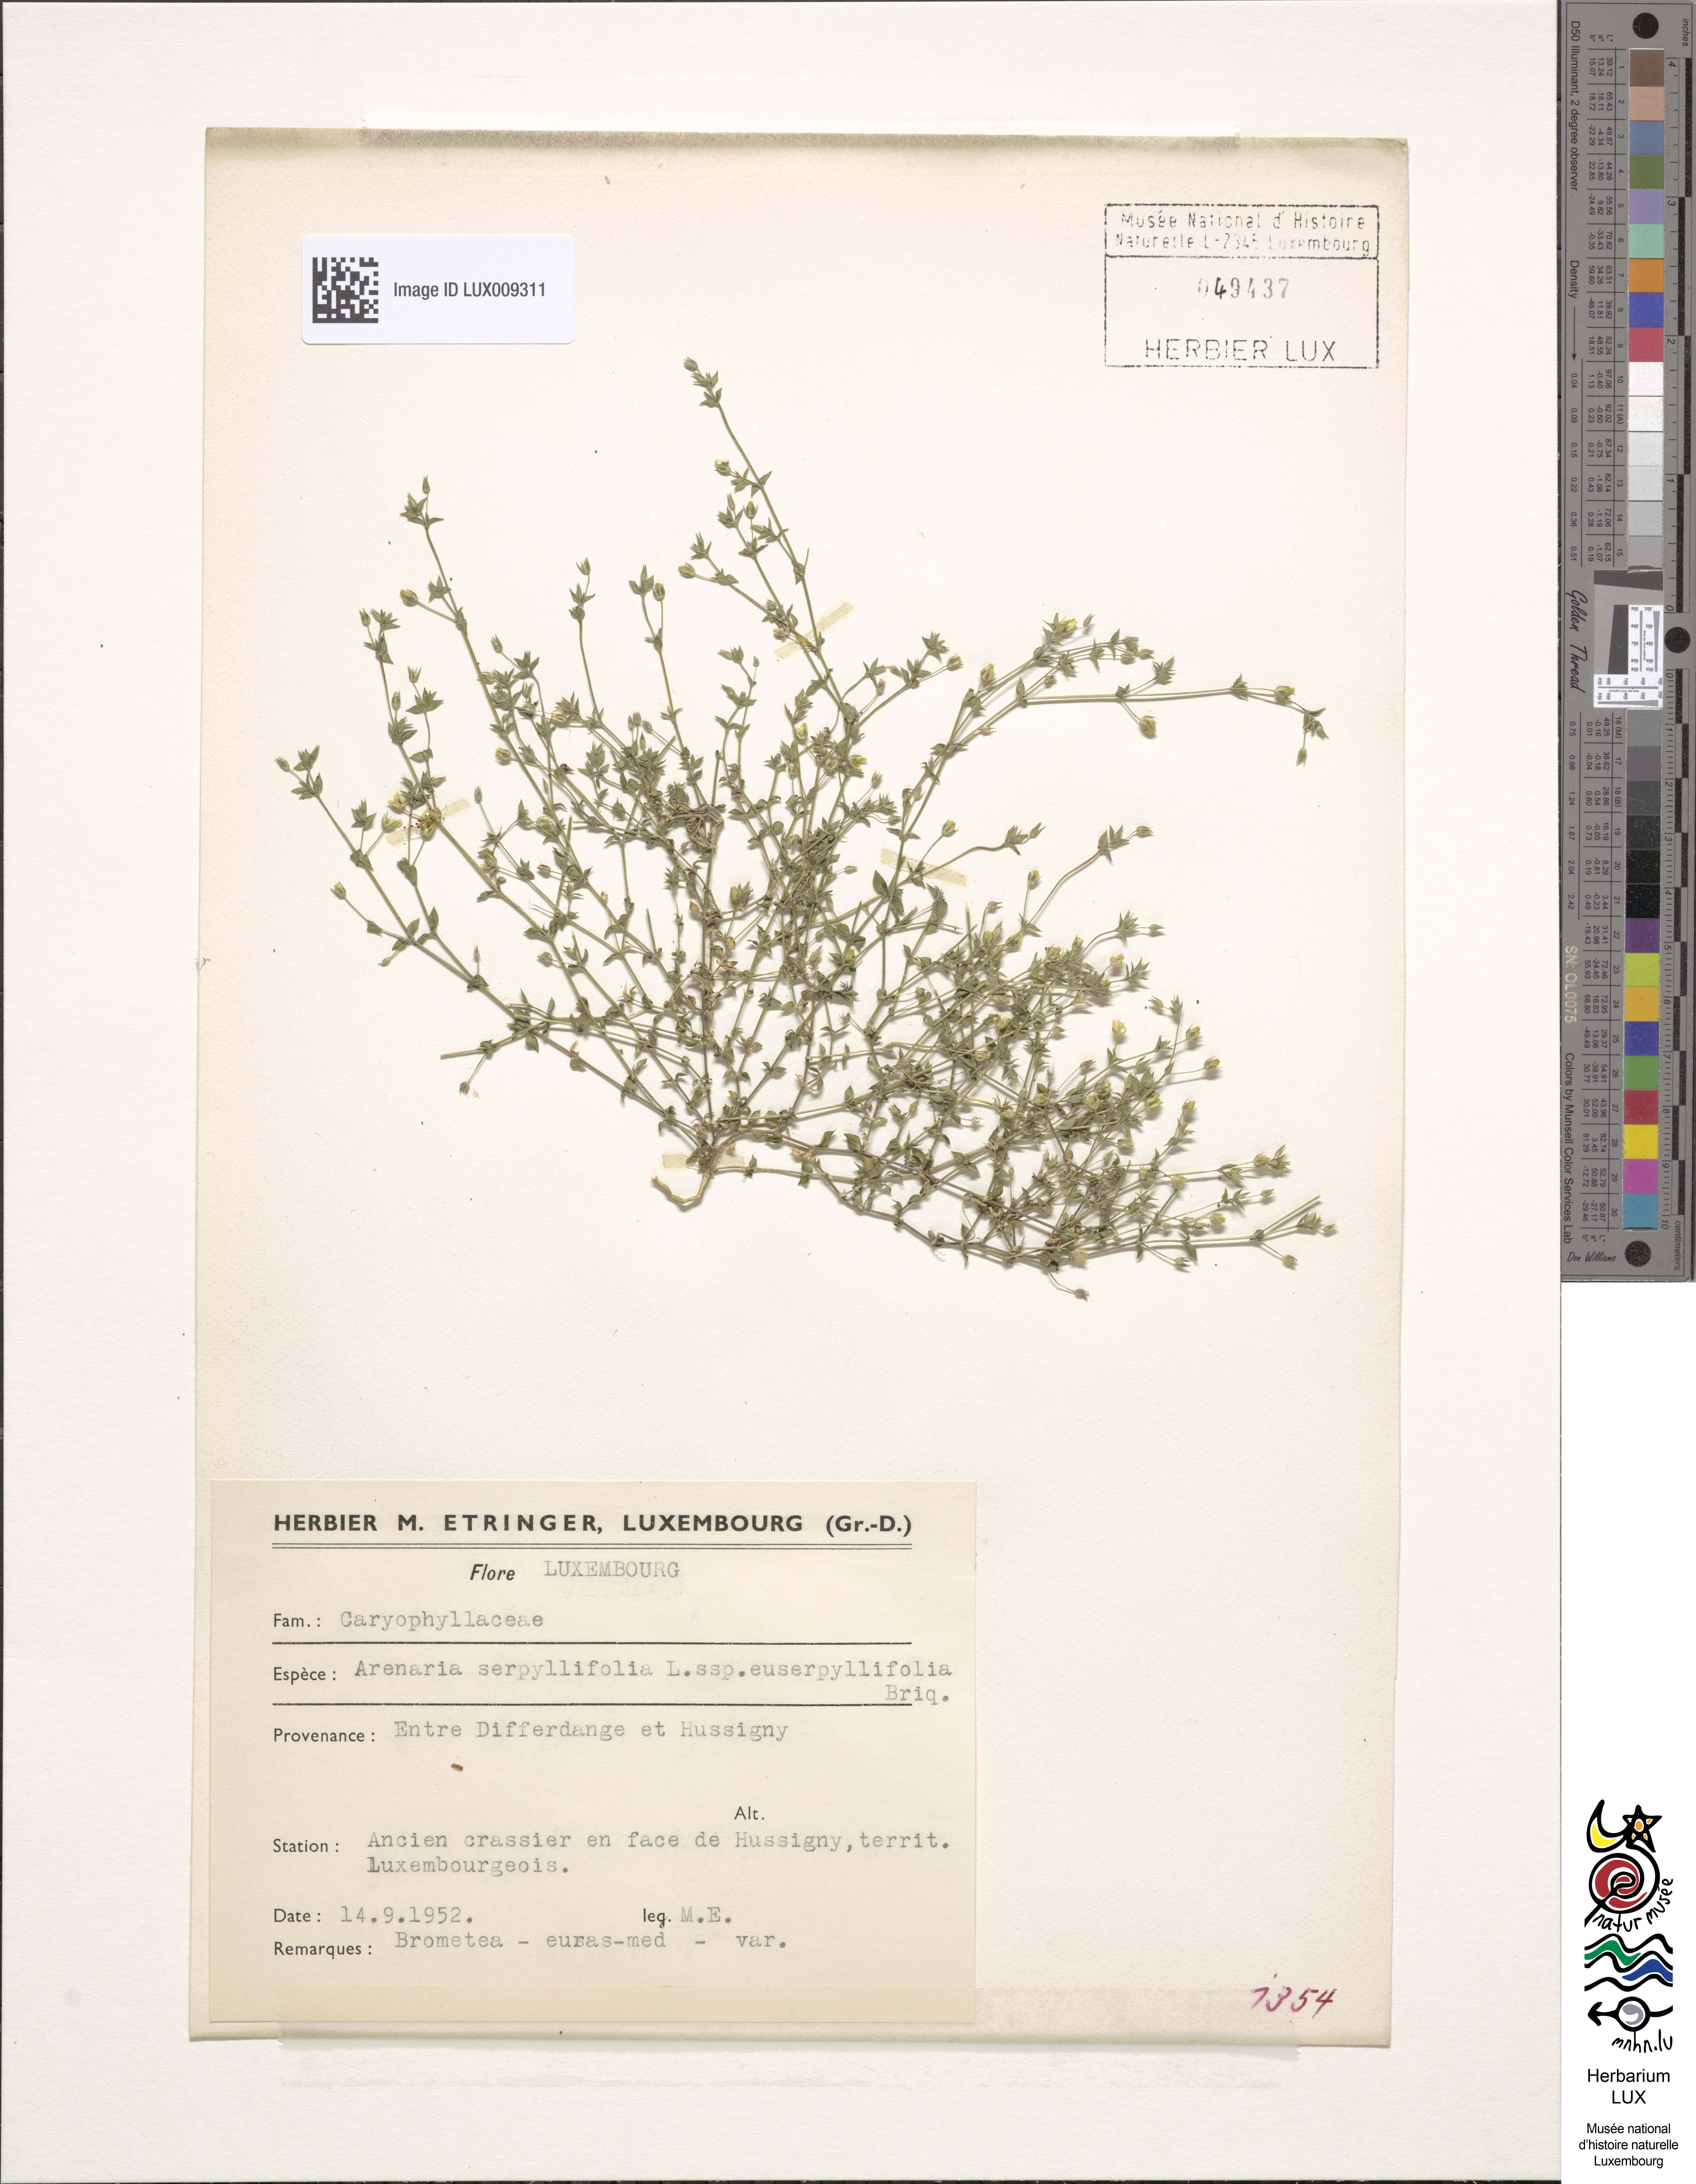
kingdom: Plantae
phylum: Tracheophyta
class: Magnoliopsida
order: Caryophyllales
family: Caryophyllaceae
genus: Arenaria
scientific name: Arenaria serpyllifolia
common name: Thyme-leaved sandwort
